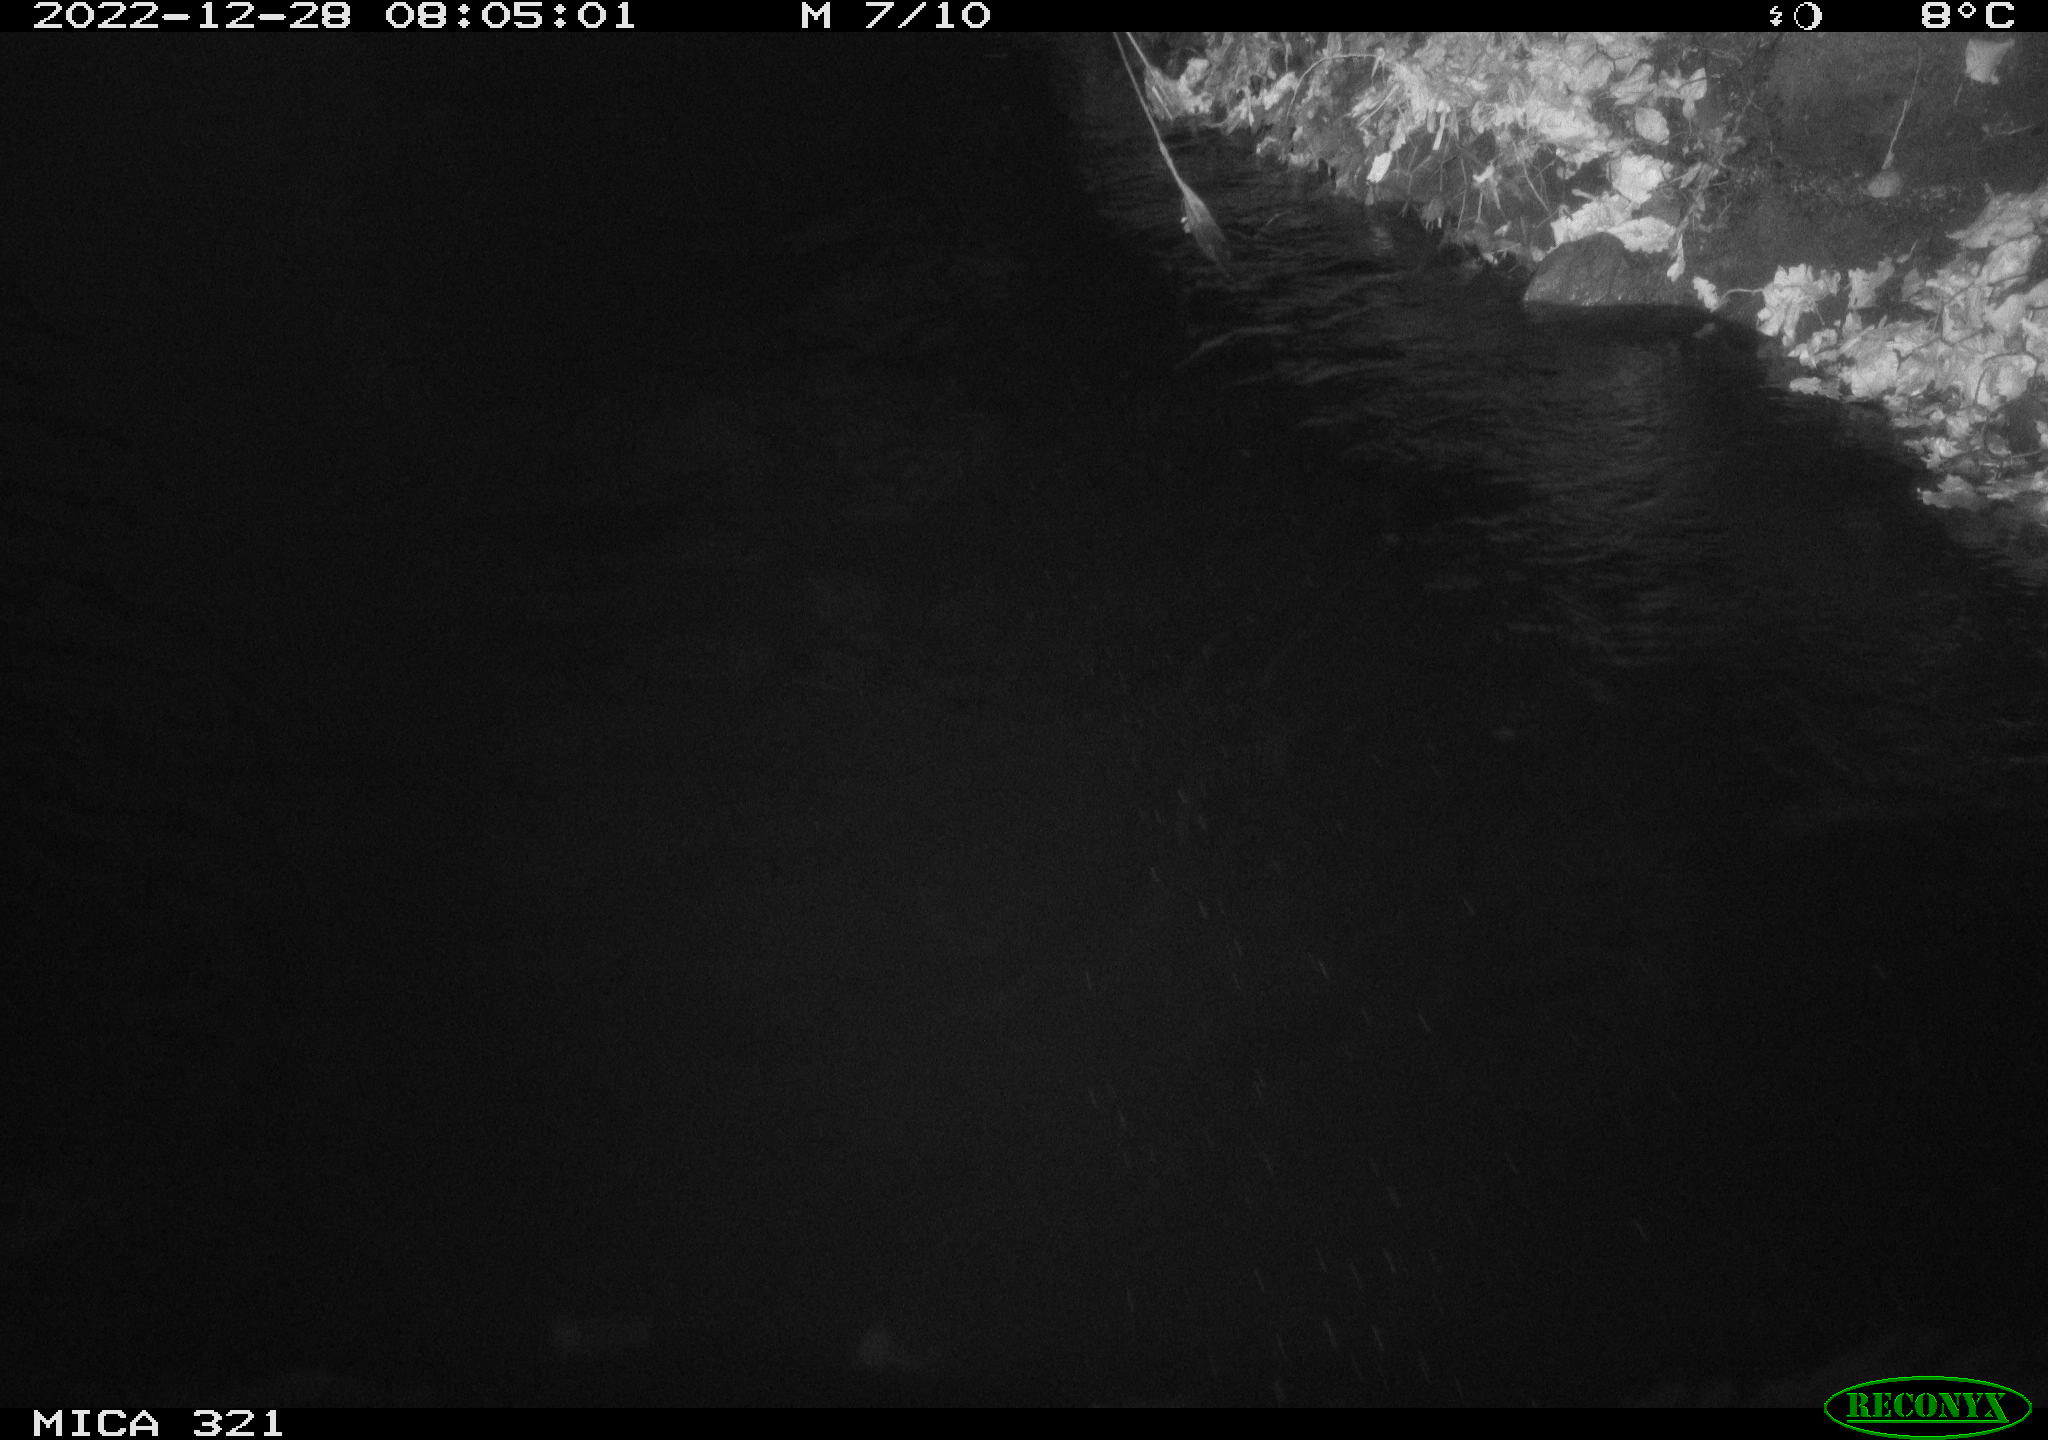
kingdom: Animalia
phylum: Chordata
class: Aves
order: Anseriformes
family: Anatidae
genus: Anas
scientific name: Anas
